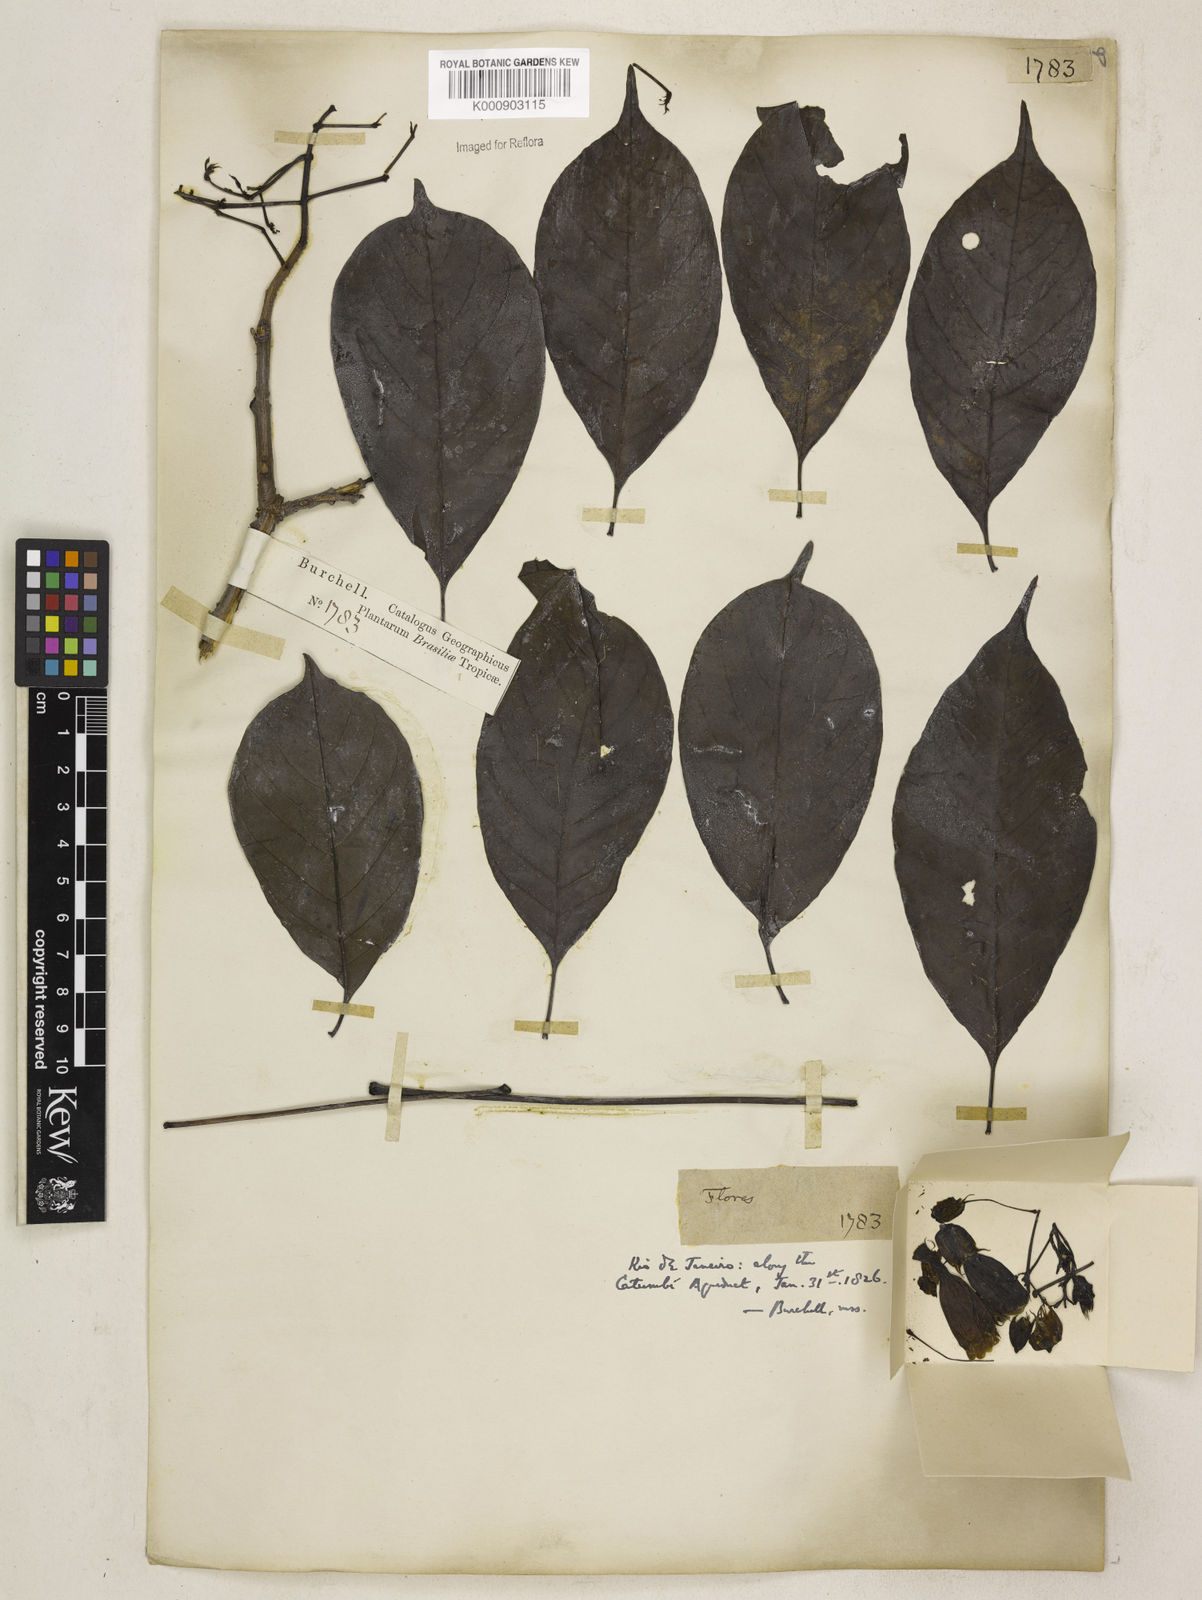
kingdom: Plantae
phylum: Tracheophyta
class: Magnoliopsida
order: Lamiales
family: Bignoniaceae
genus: Cybistax
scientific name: Cybistax antisyphilitica
